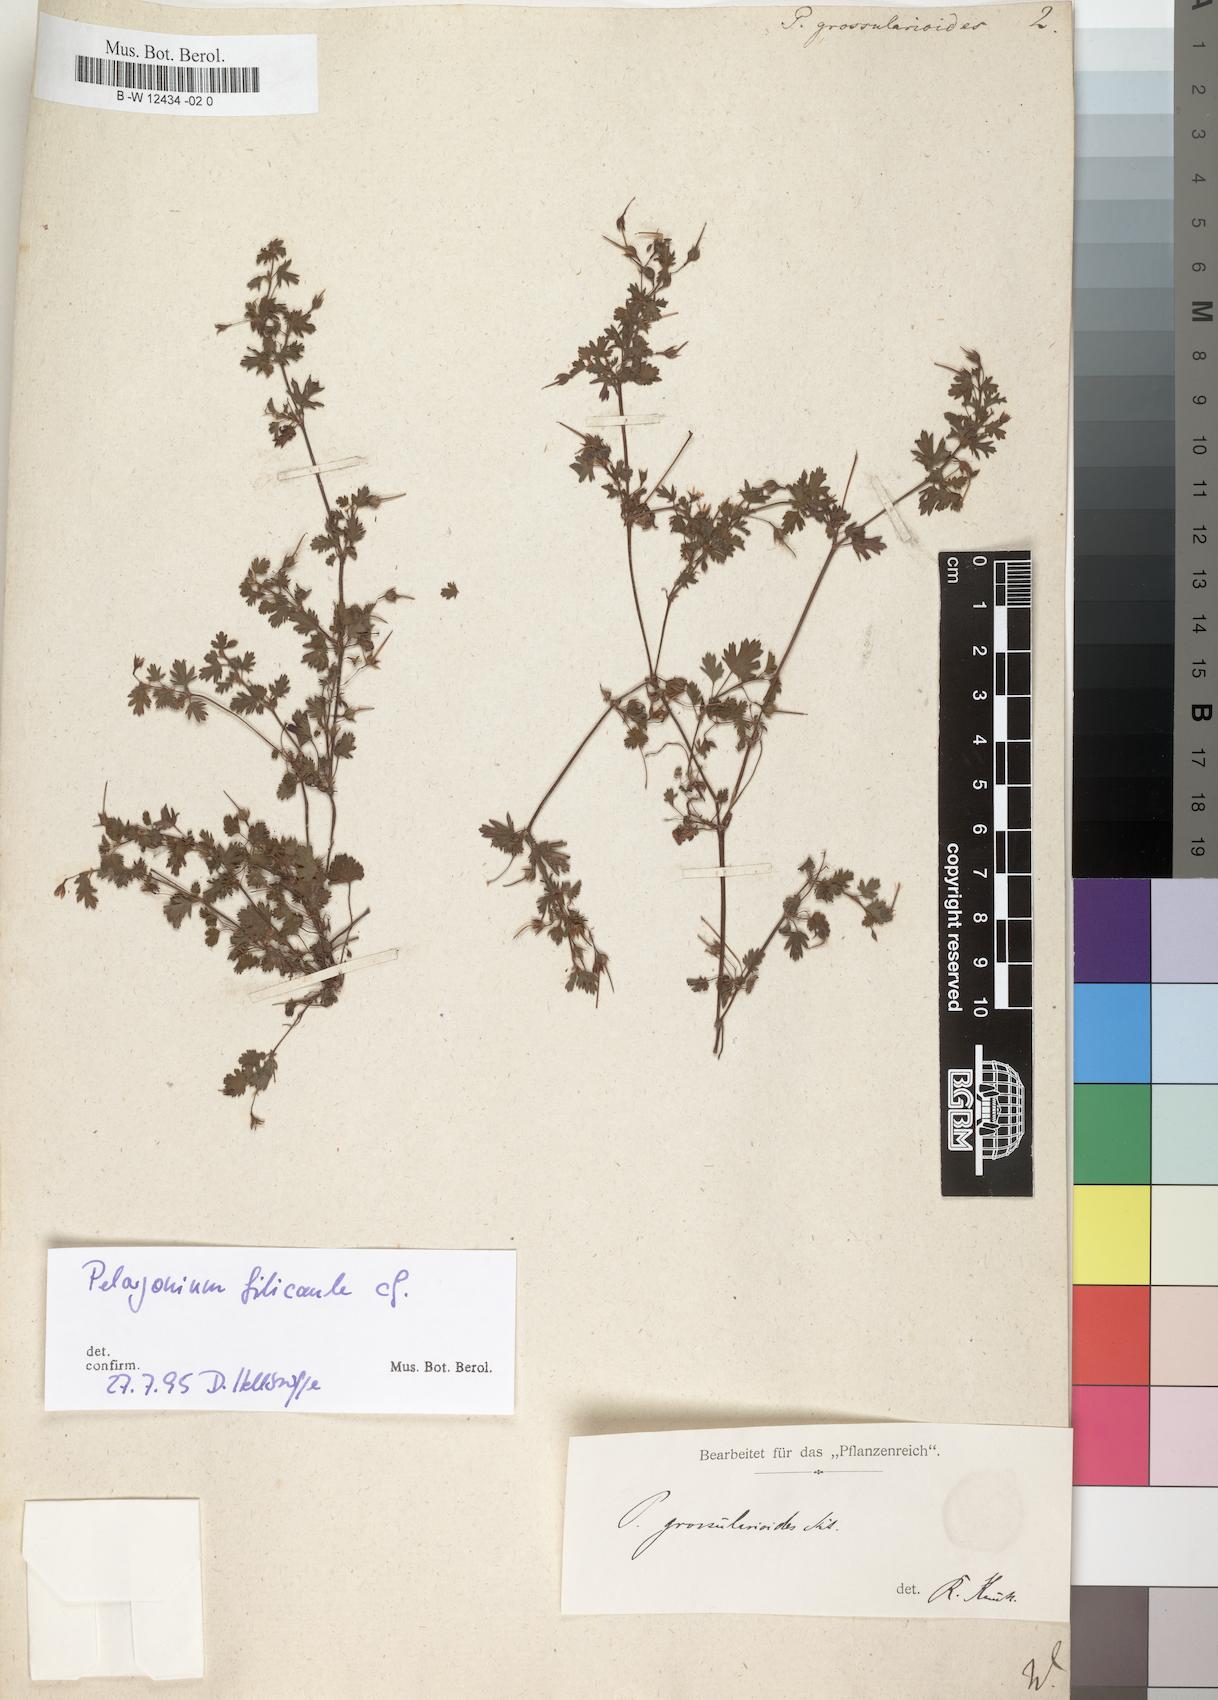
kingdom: Plantae
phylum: Tracheophyta
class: Magnoliopsida
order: Geraniales
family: Geraniaceae
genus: Pelargonium
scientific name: Pelargonium grossularioides
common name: Gooseberry geranium
